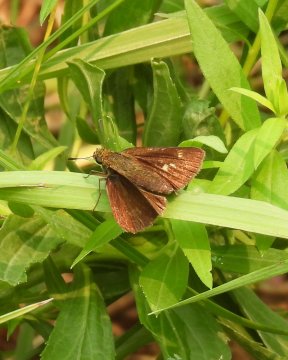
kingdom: Animalia
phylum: Arthropoda
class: Insecta
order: Lepidoptera
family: Hesperiidae
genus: Euphyes
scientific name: Euphyes vestris
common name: Dun Skipper
